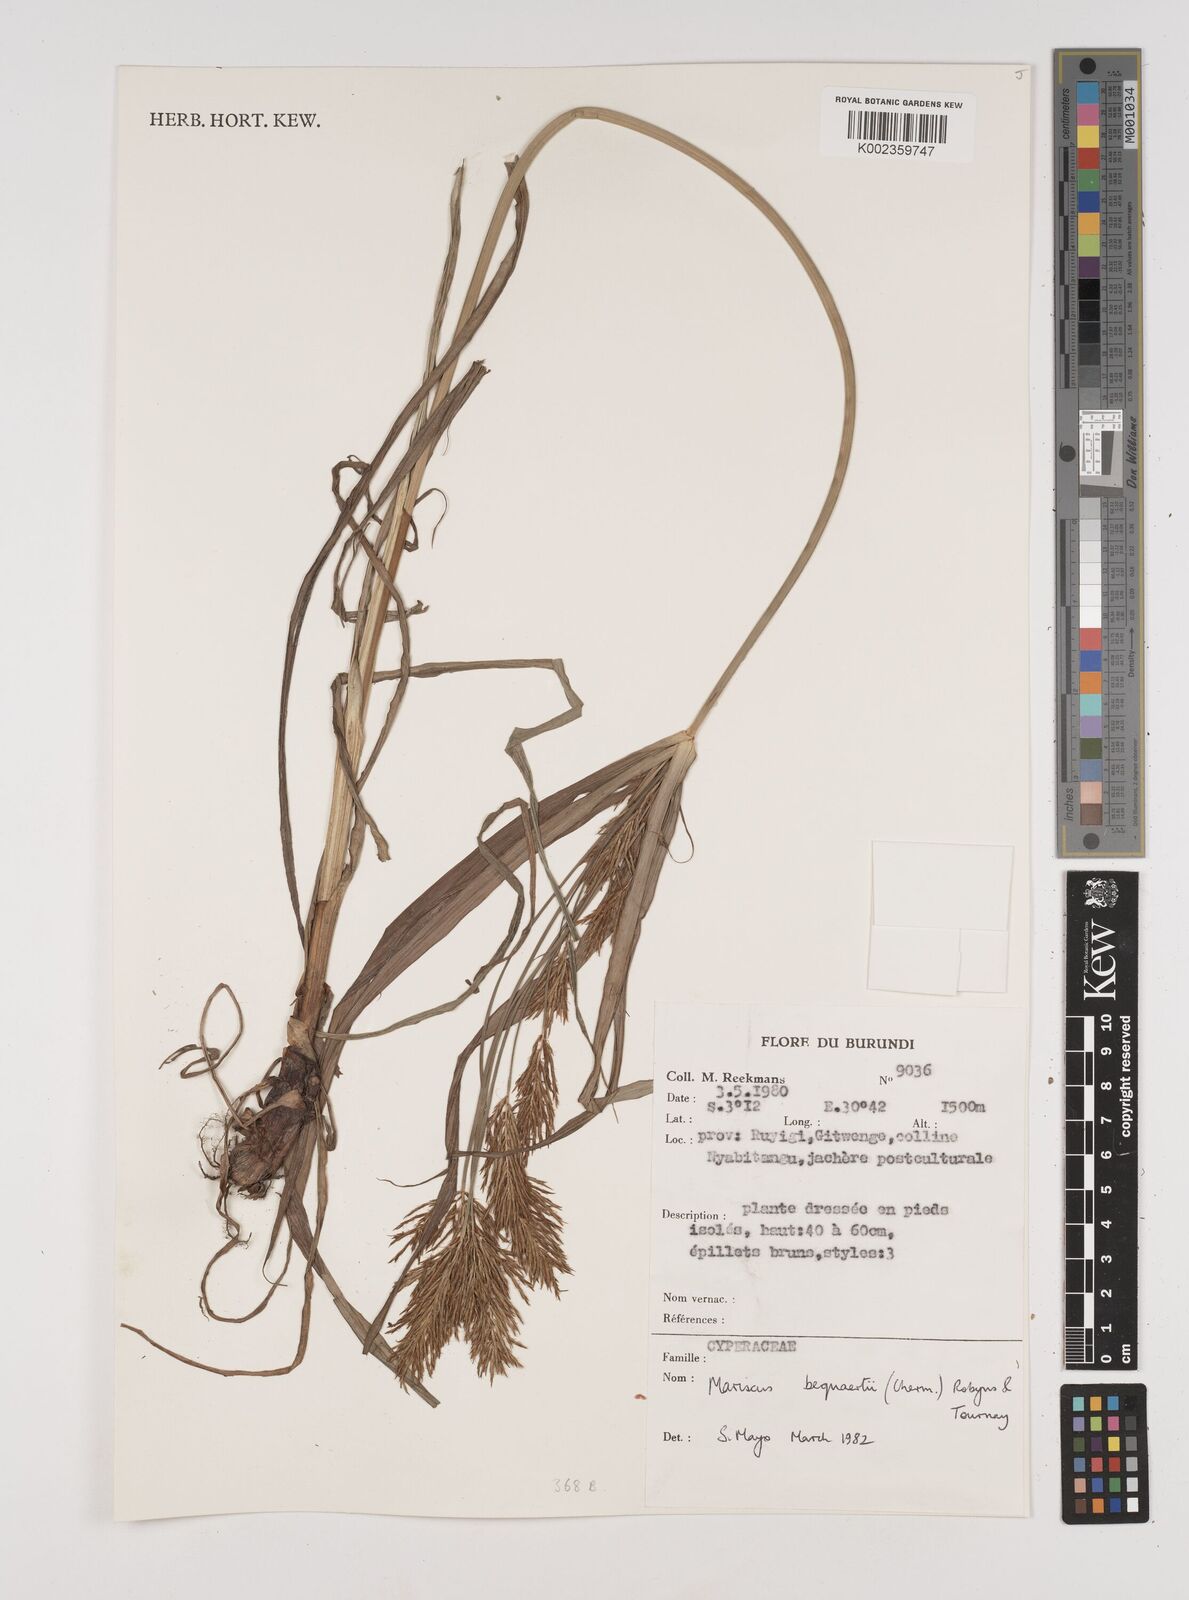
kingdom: Plantae
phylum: Tracheophyta
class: Liliopsida
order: Poales
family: Cyperaceae
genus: Cyperus
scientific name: Cyperus ferrugineoviridis
